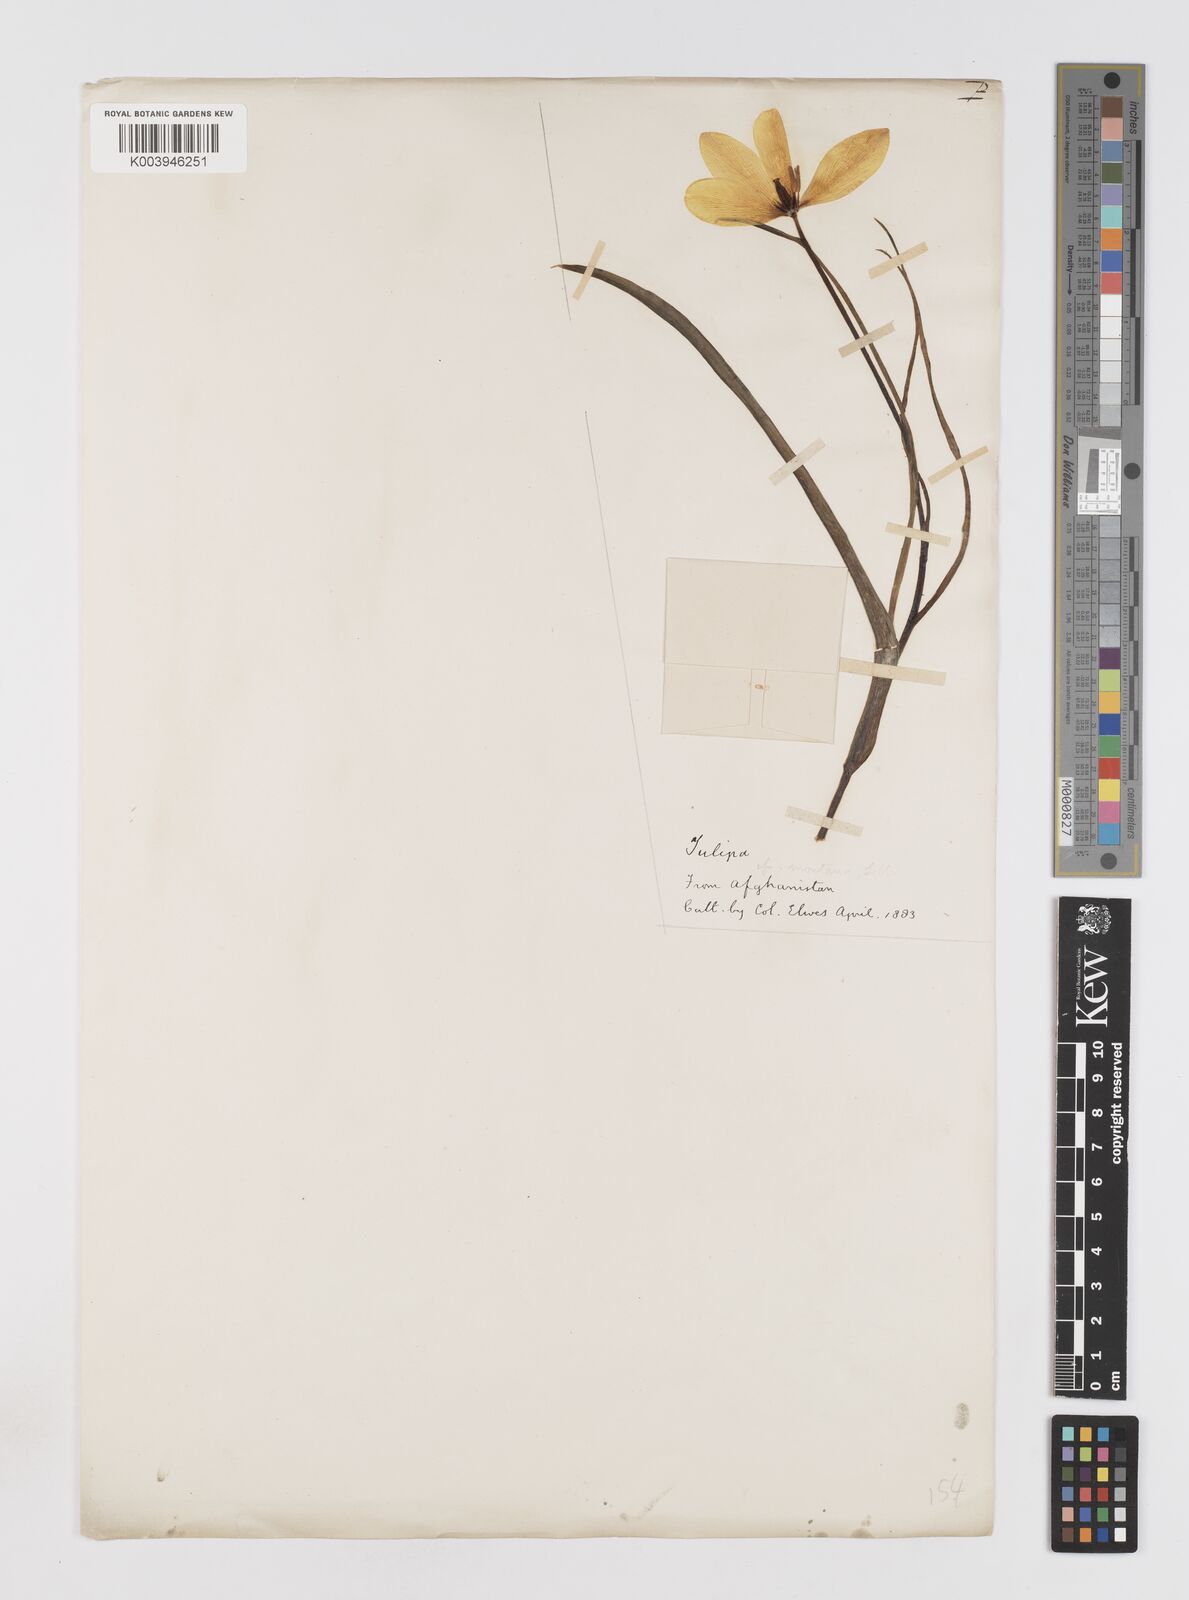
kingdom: Plantae
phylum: Tracheophyta
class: Liliopsida
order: Liliales
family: Liliaceae
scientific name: Liliaceae
